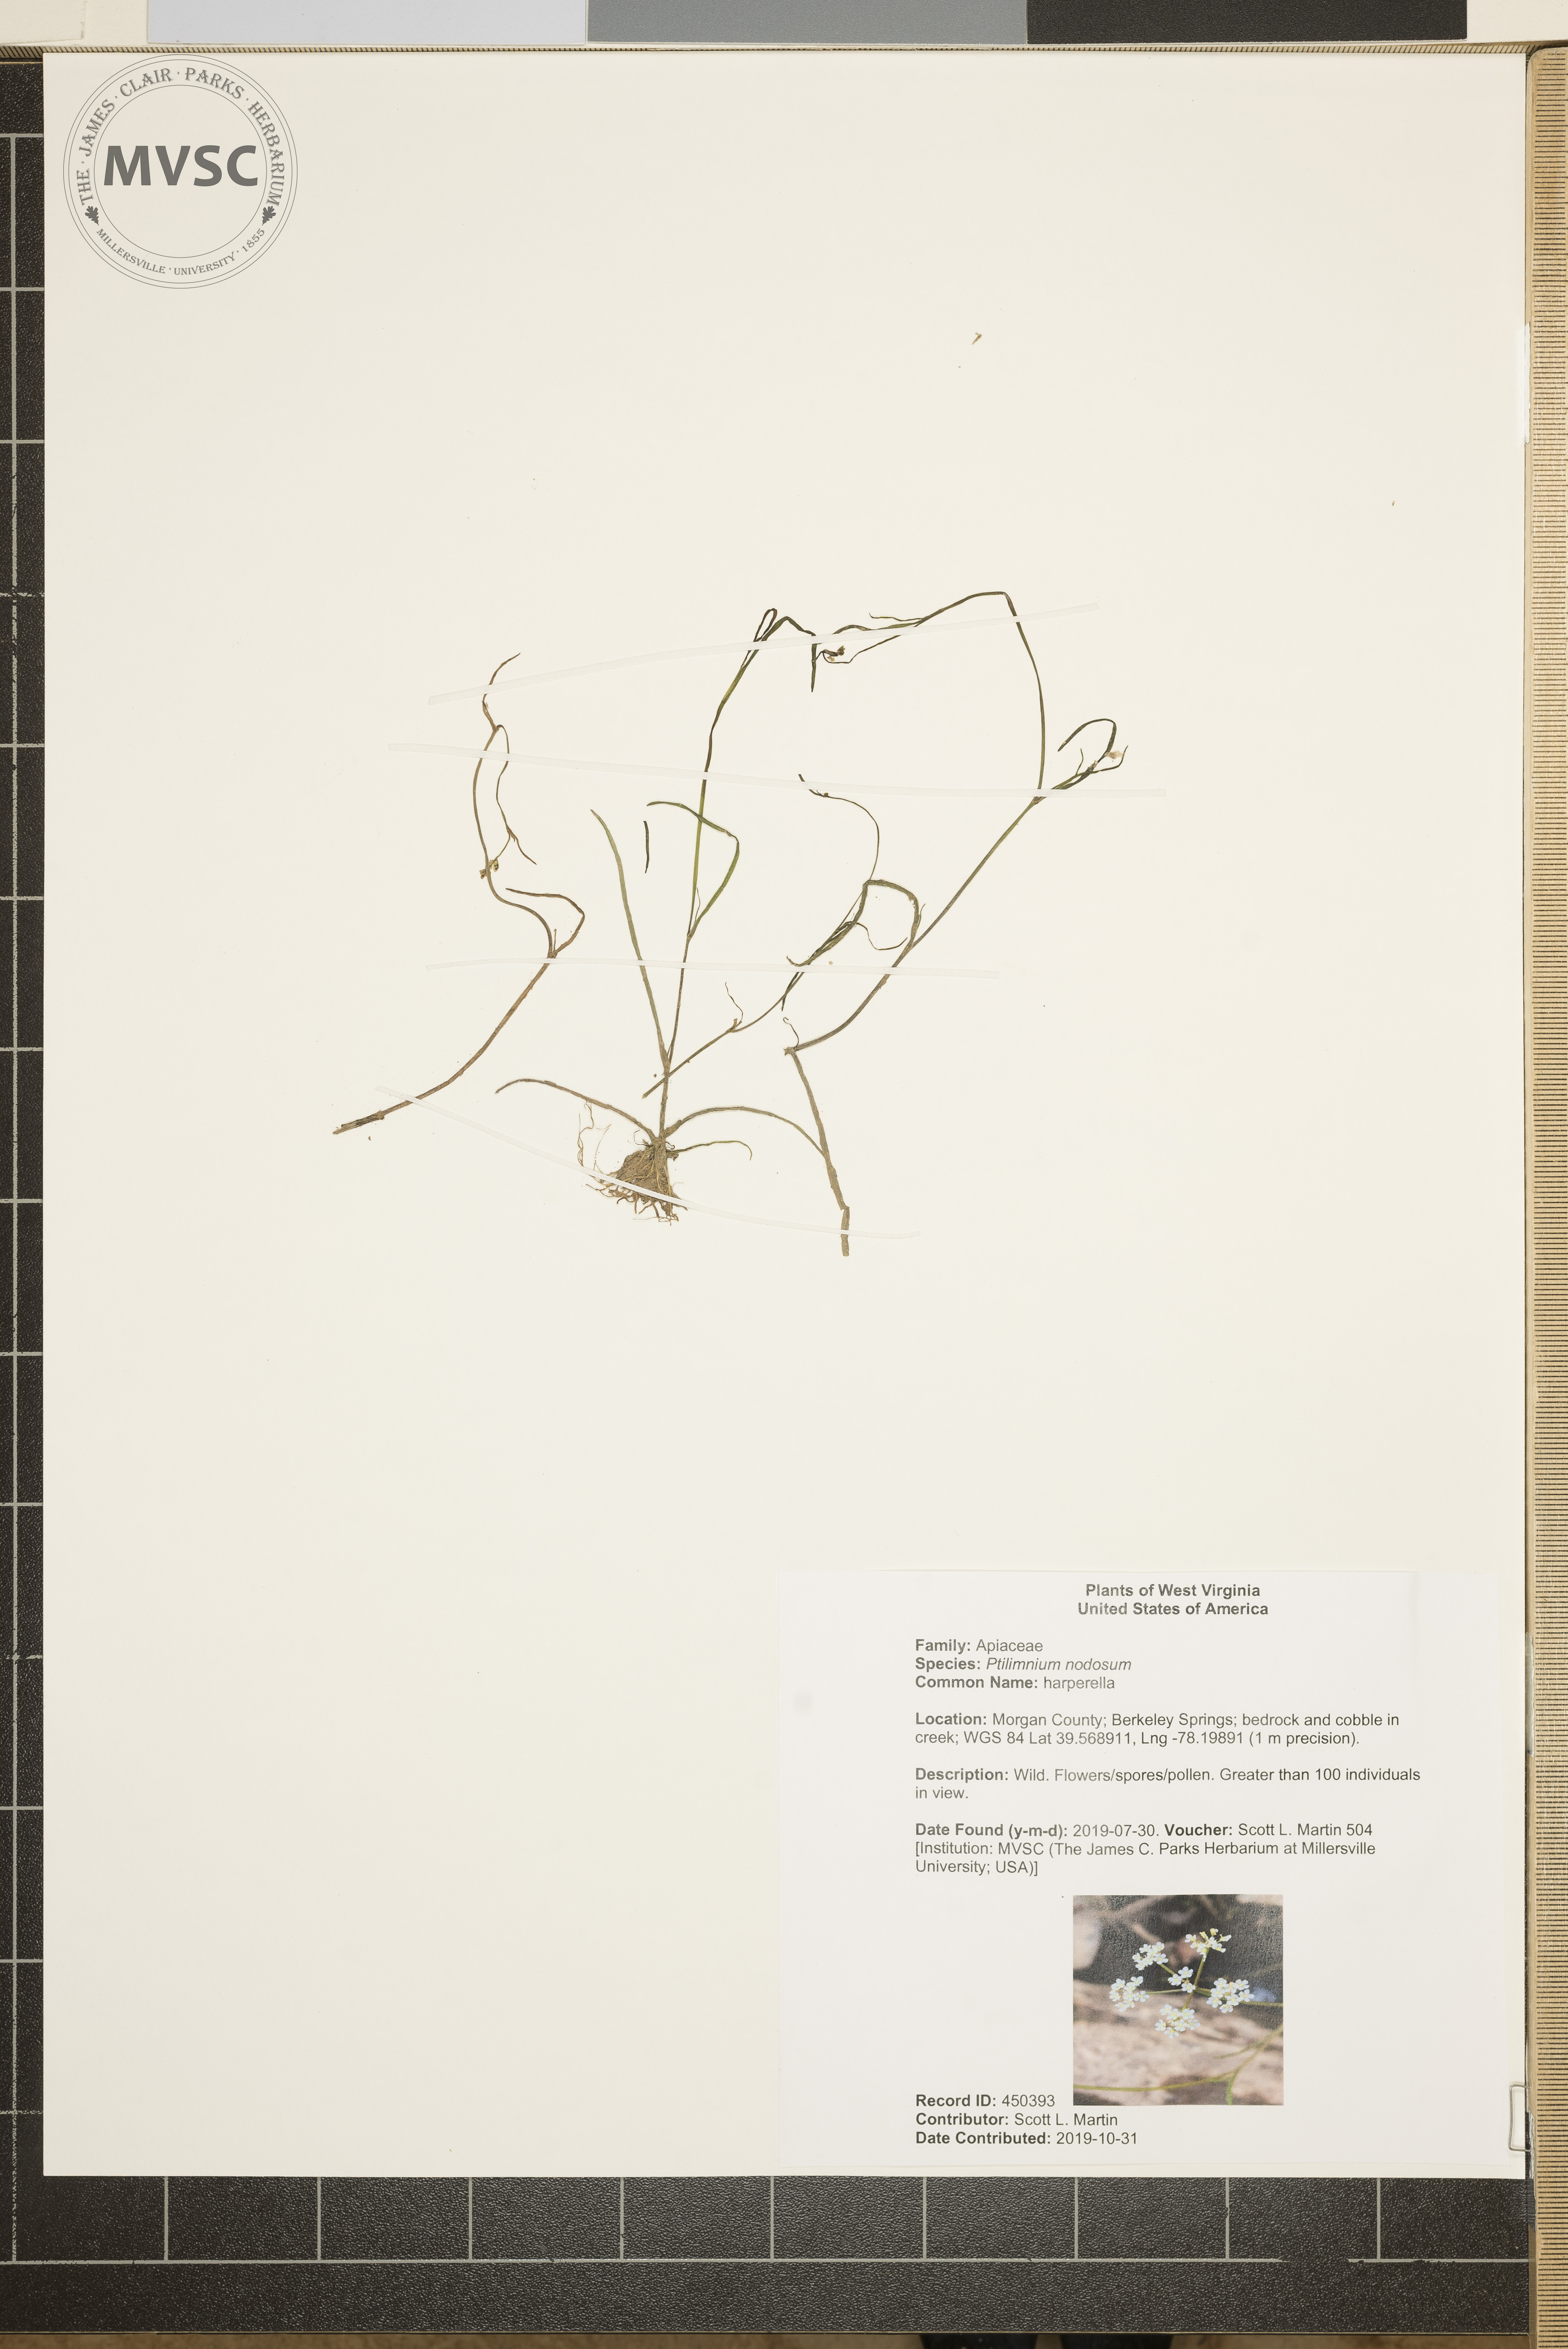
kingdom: Plantae
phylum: Tracheophyta
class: Magnoliopsida
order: Apiales
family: Apiaceae
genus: Harperella
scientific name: Harperella nodosa
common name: harperella
